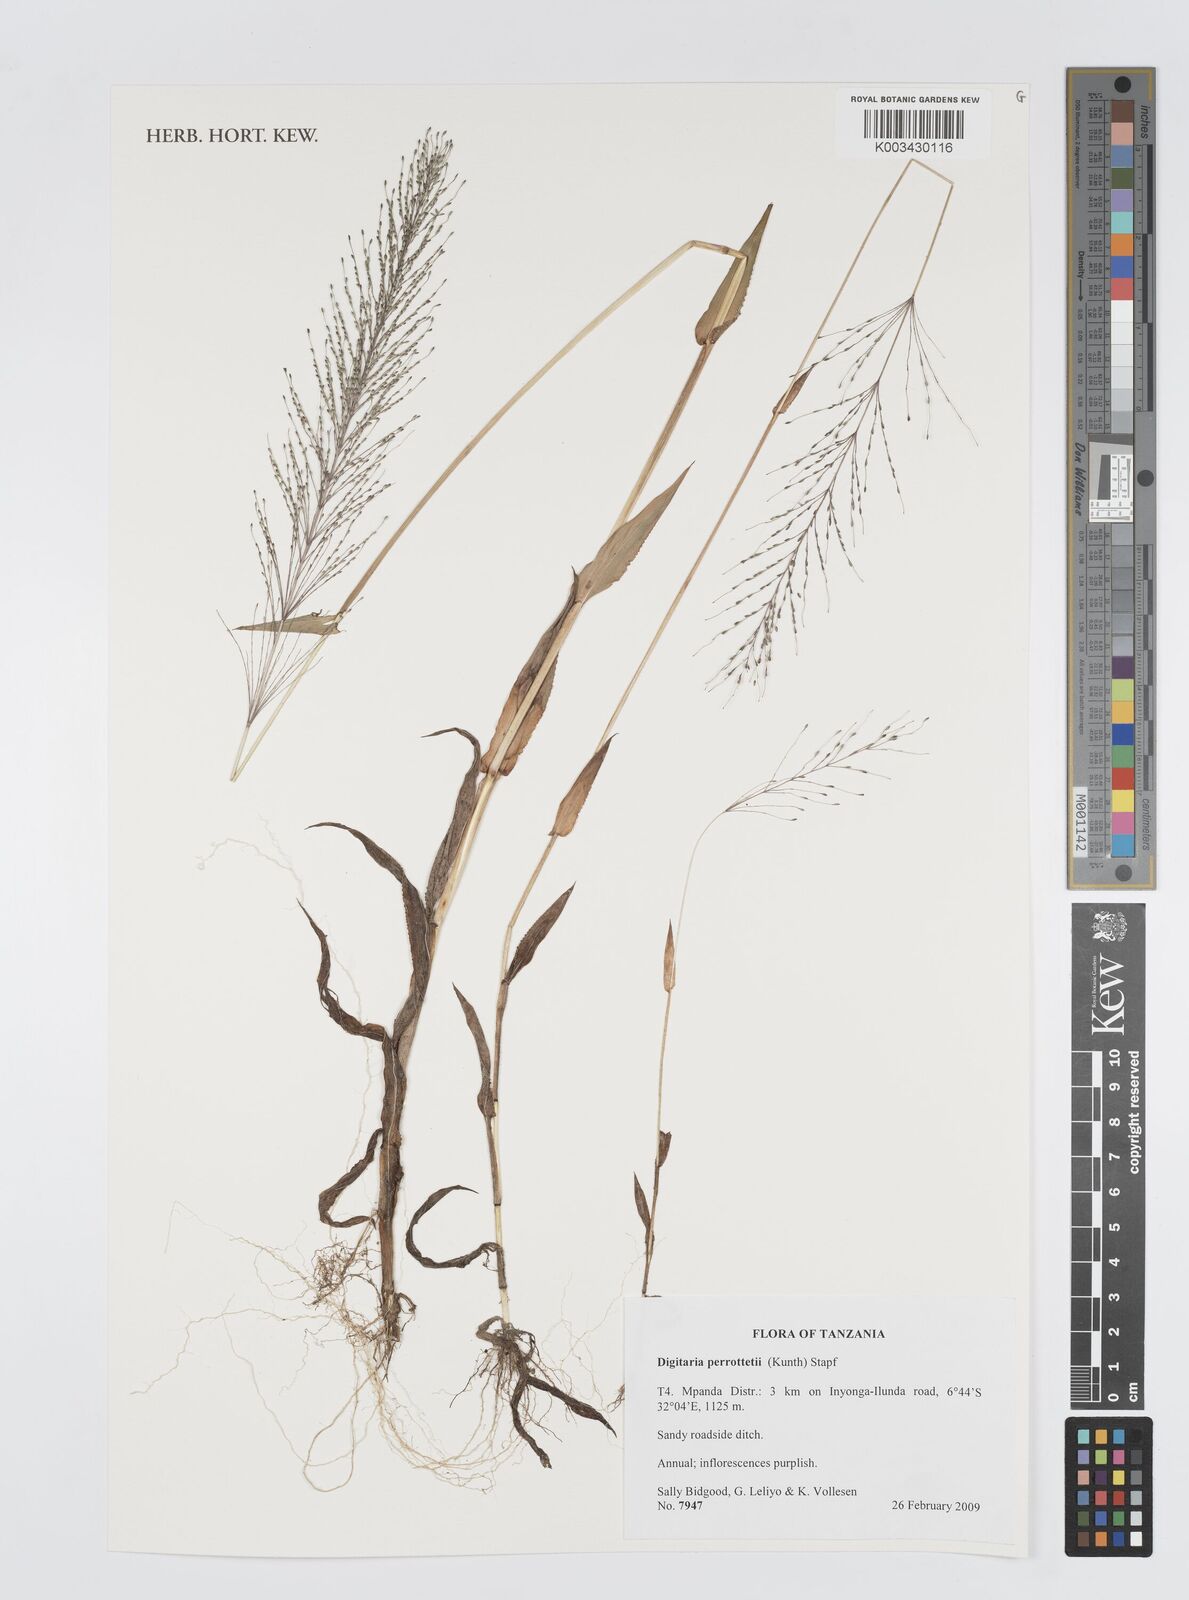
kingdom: Plantae
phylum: Tracheophyta
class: Liliopsida
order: Poales
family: Poaceae
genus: Digitaria
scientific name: Digitaria perrottetii
